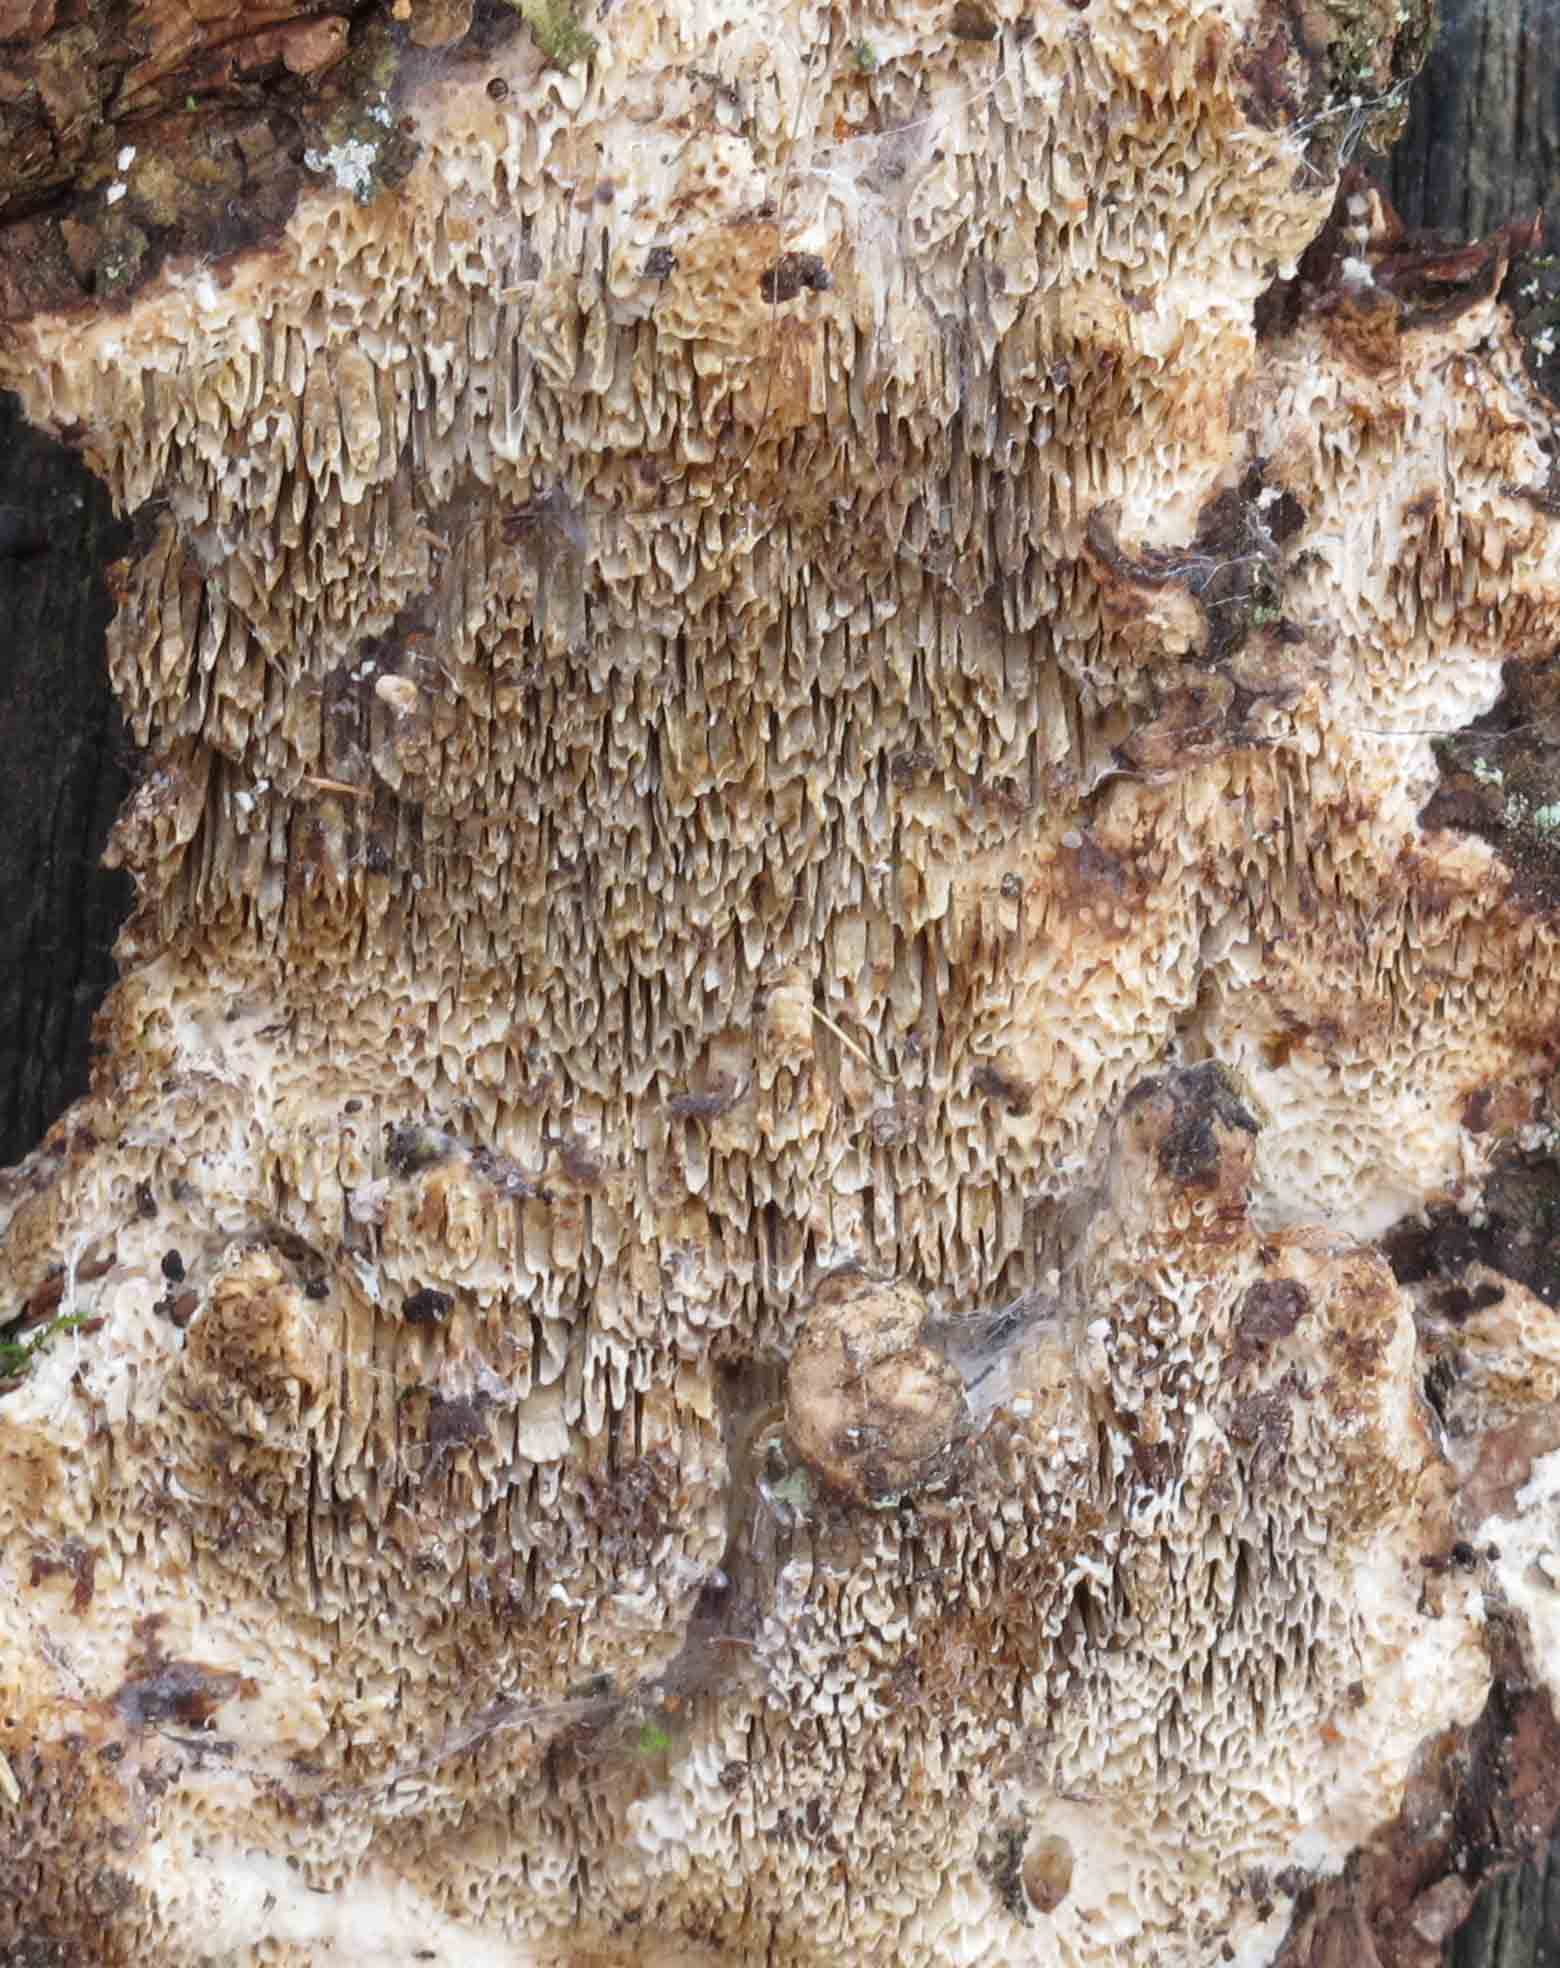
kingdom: Fungi
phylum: Basidiomycota
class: Agaricomycetes
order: Polyporales
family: Fomitopsidaceae
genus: Antrodia
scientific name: Antrodia sinuosa
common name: tømmer-sejporesvamp
